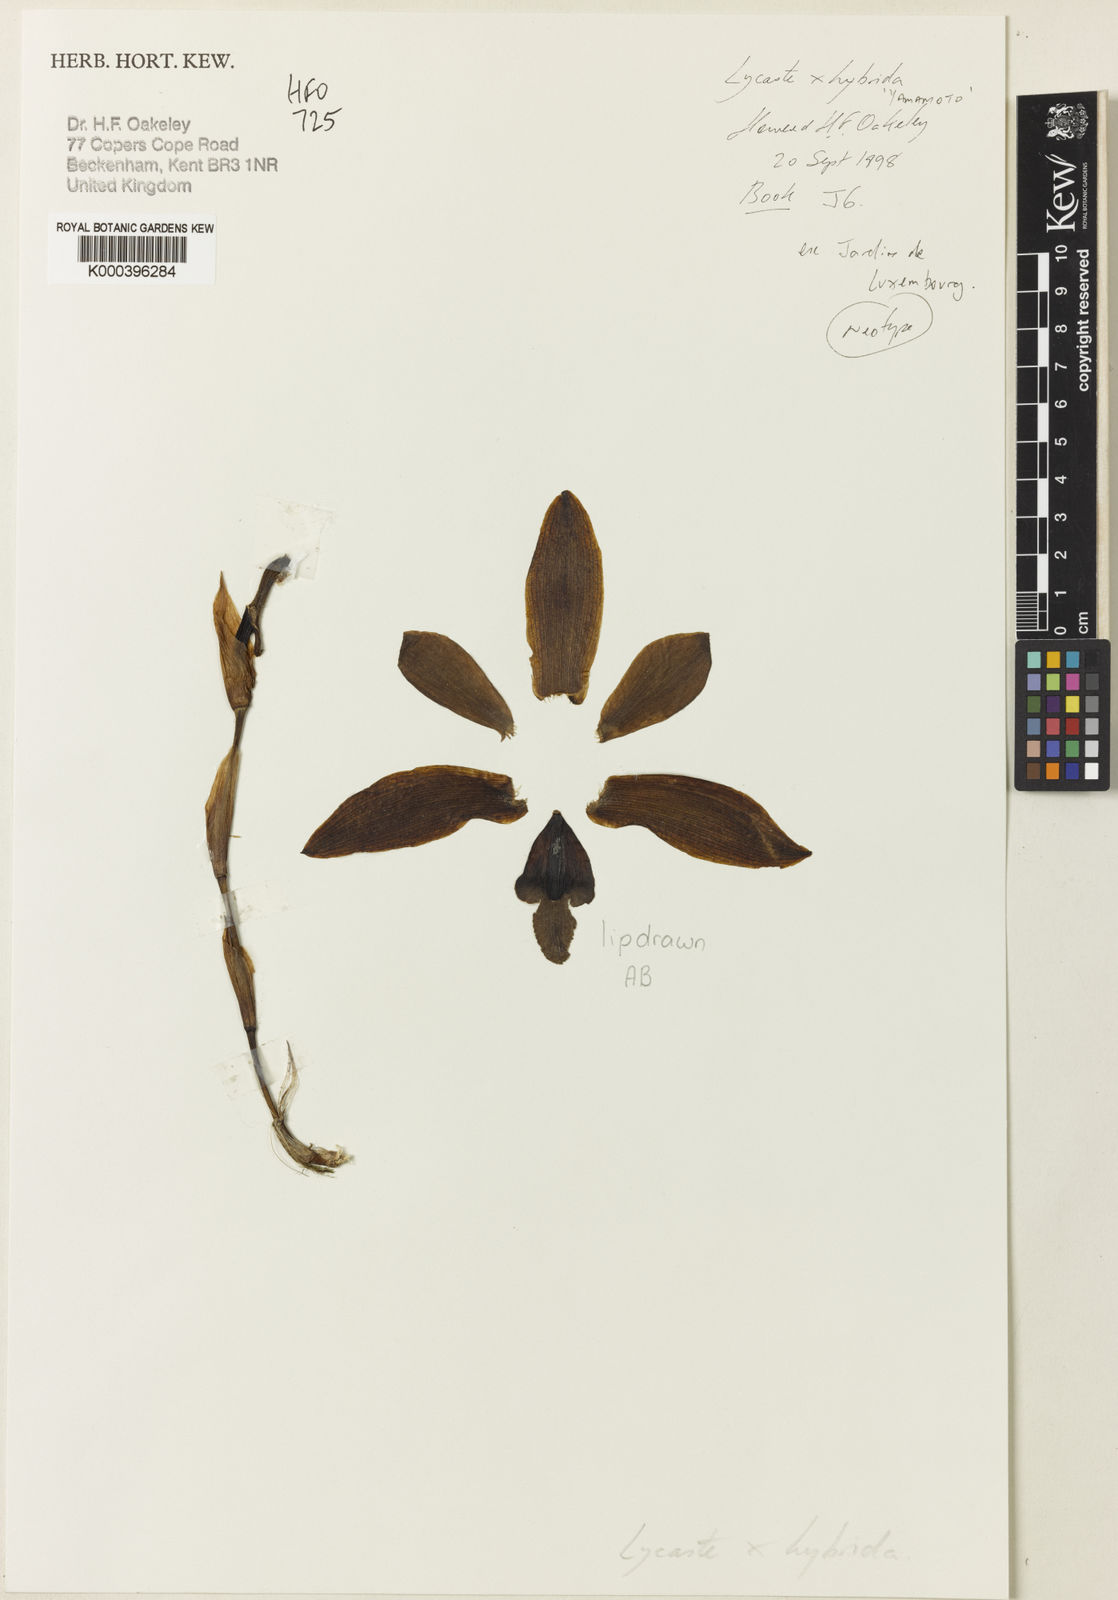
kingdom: Plantae
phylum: Tracheophyta
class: Liliopsida
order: Asparagales
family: Orchidaceae
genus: Lycaste
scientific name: Lycaste
